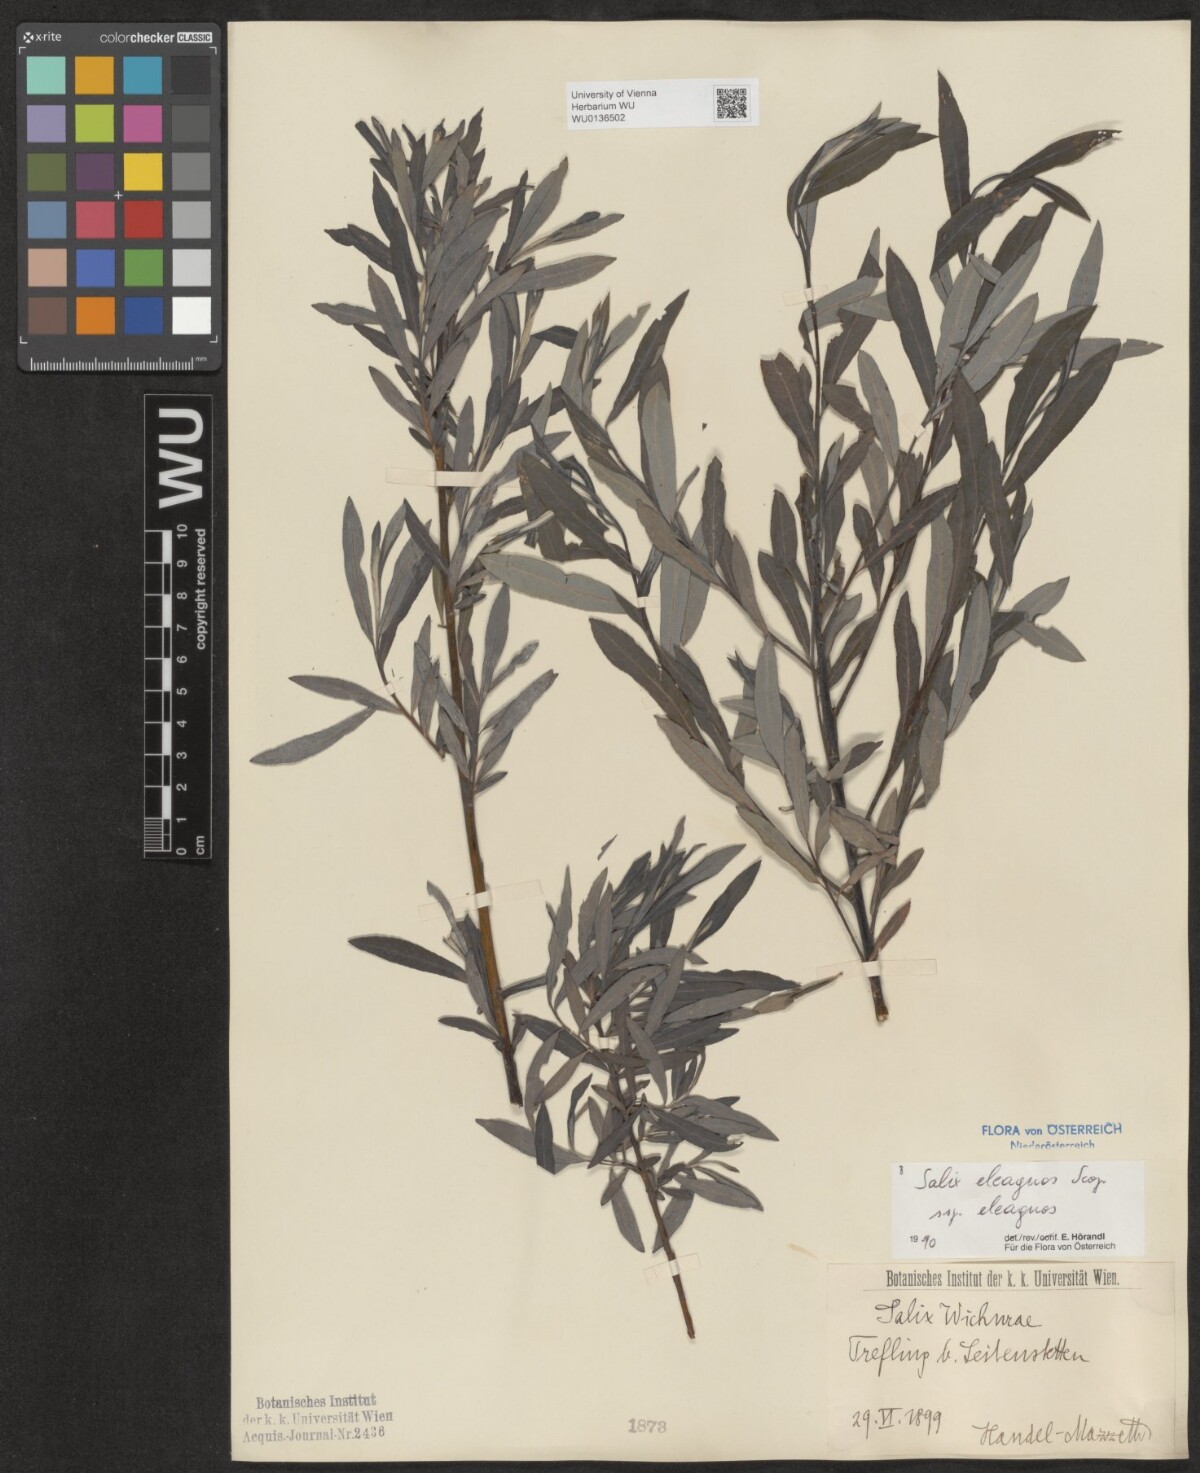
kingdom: Plantae
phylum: Tracheophyta
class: Magnoliopsida
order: Malpighiales
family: Salicaceae
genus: Salix
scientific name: Salix eleagnos
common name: Elaeagnus willow
